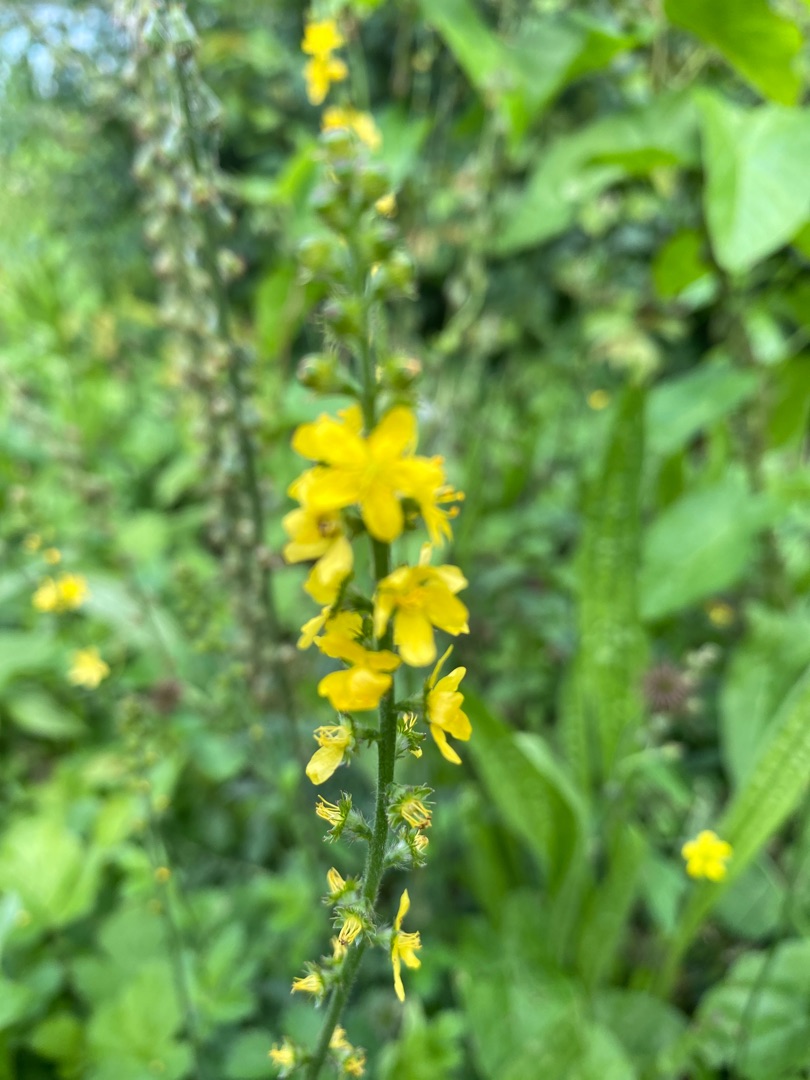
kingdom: Plantae
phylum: Tracheophyta
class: Magnoliopsida
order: Rosales
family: Rosaceae
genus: Agrimonia
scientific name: Agrimonia eupatoria
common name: Almindelig agermåne
